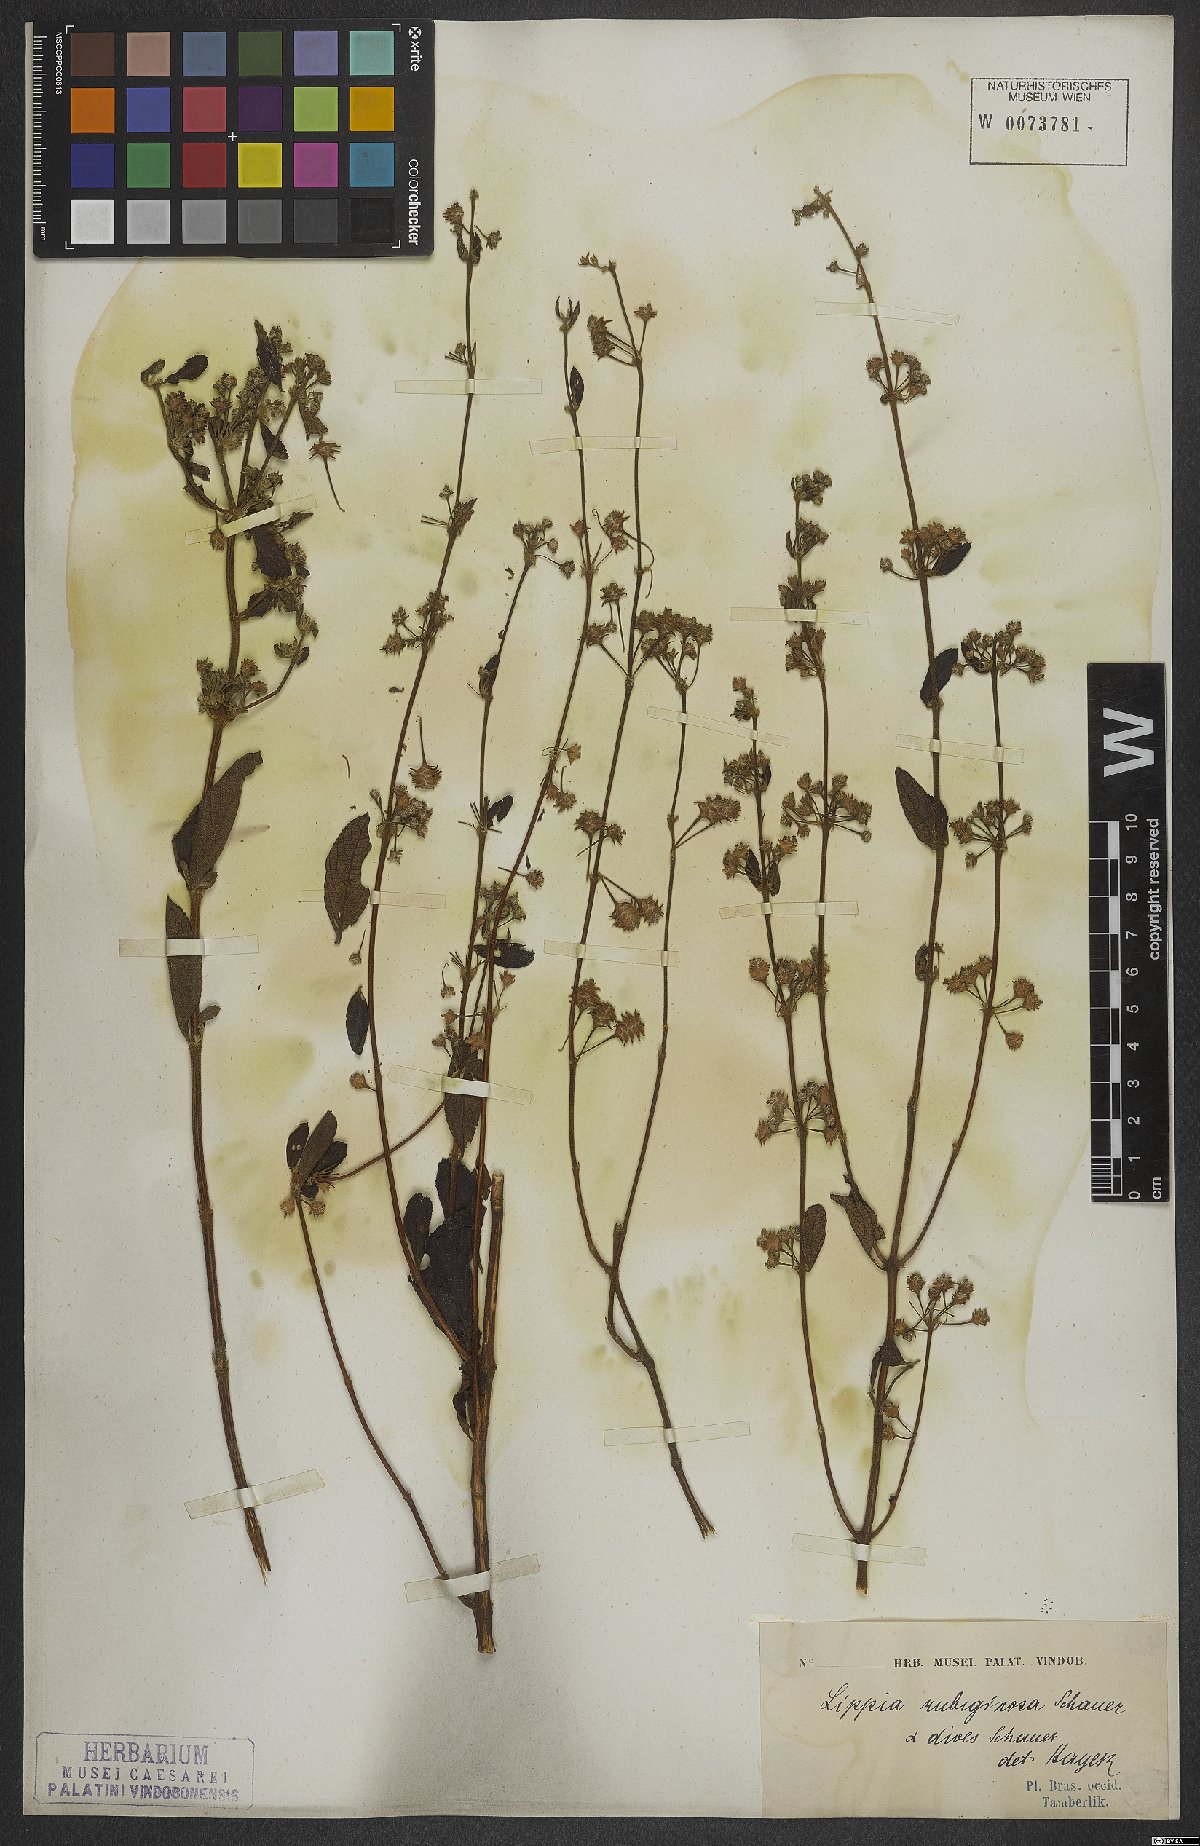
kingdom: Plantae
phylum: Tracheophyta
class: Magnoliopsida
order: Lamiales
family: Verbenaceae
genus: Lippia
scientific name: Lippia origanoides
